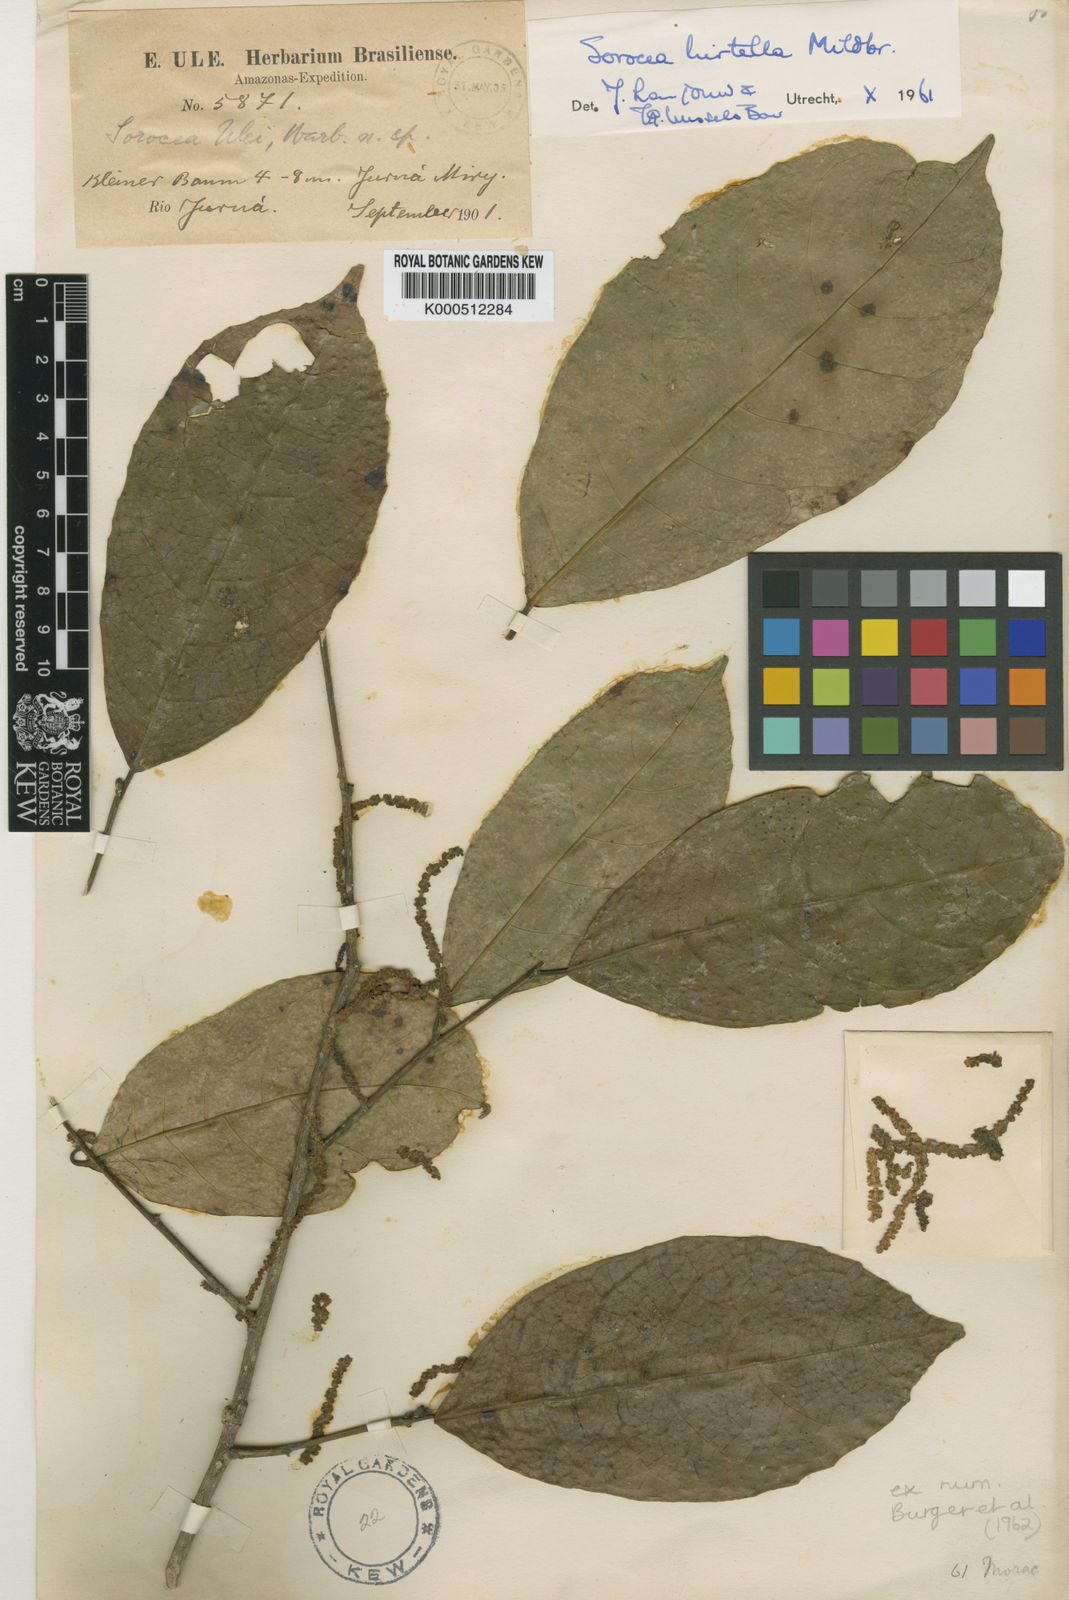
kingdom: Plantae
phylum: Tracheophyta
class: Magnoliopsida
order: Rosales
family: Moraceae
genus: Sorocea
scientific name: Sorocea pubivena
